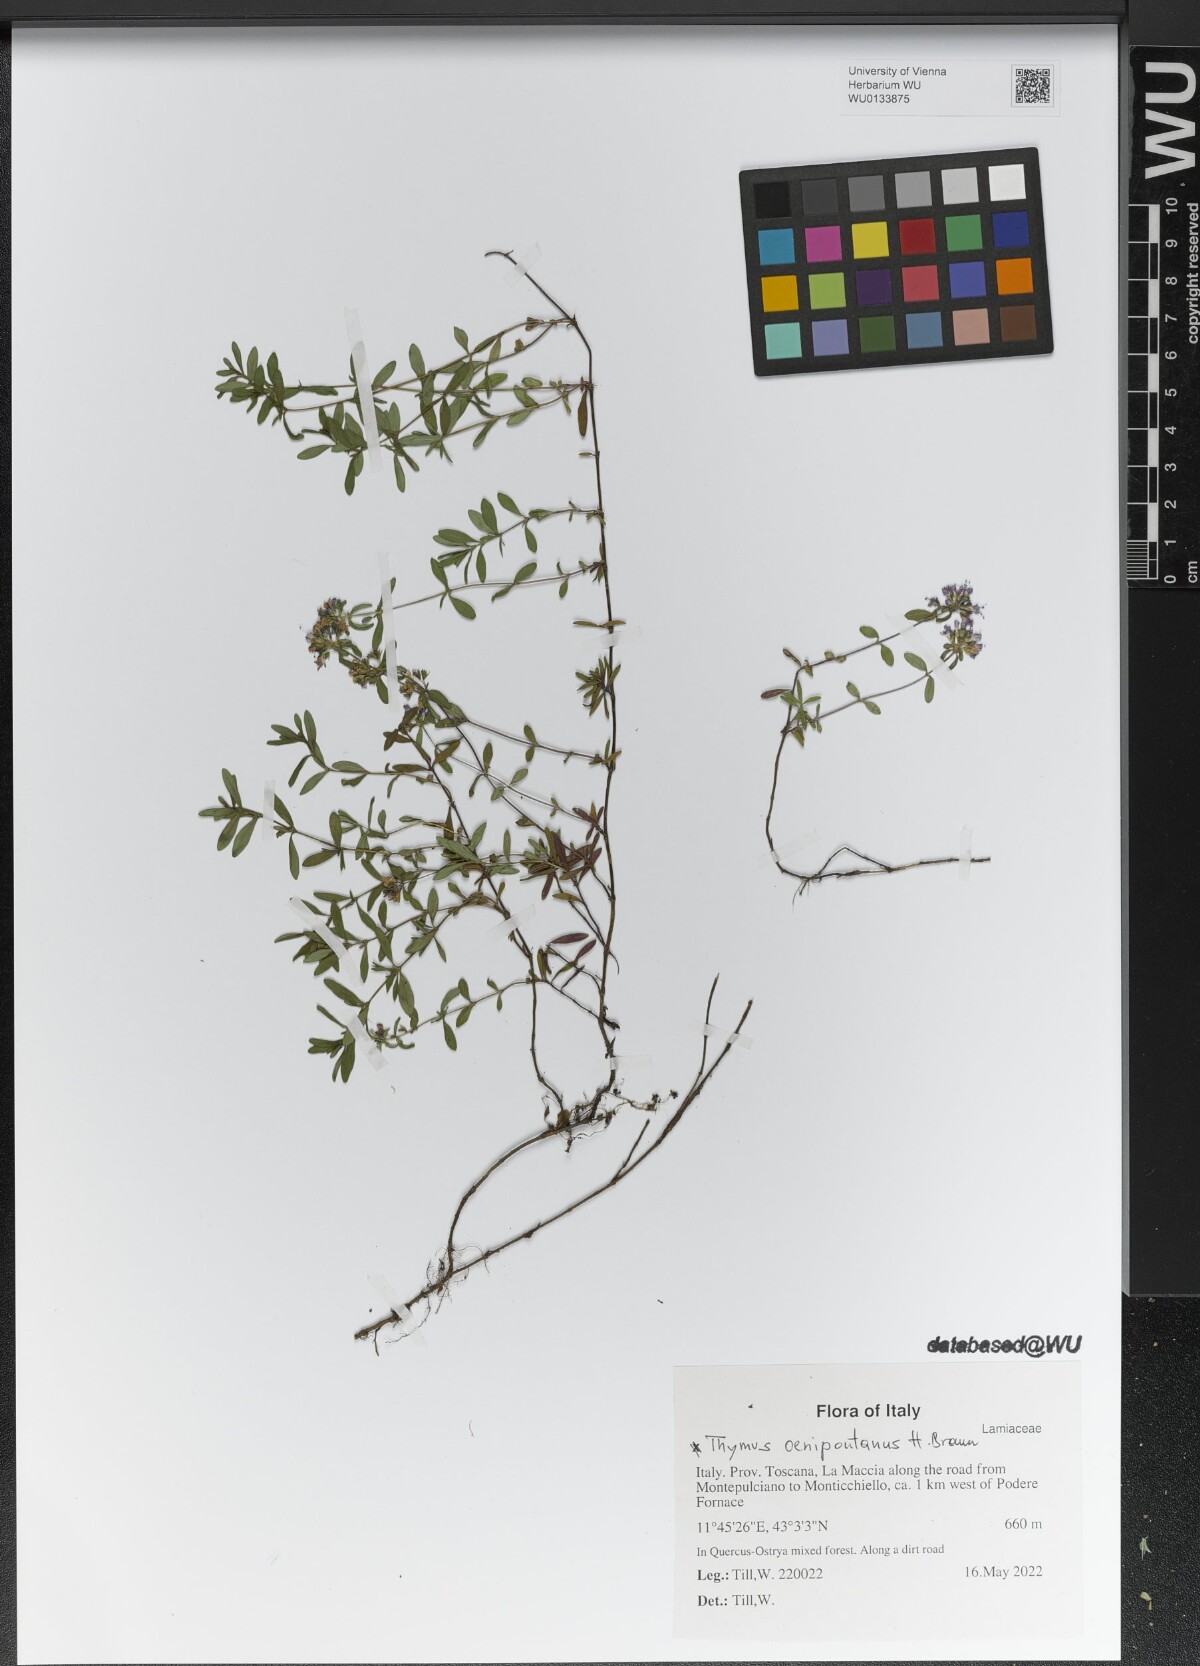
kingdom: Plantae
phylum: Tracheophyta
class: Magnoliopsida
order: Lamiales
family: Lamiaceae
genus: Thymus
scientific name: Thymus oenipontanus
